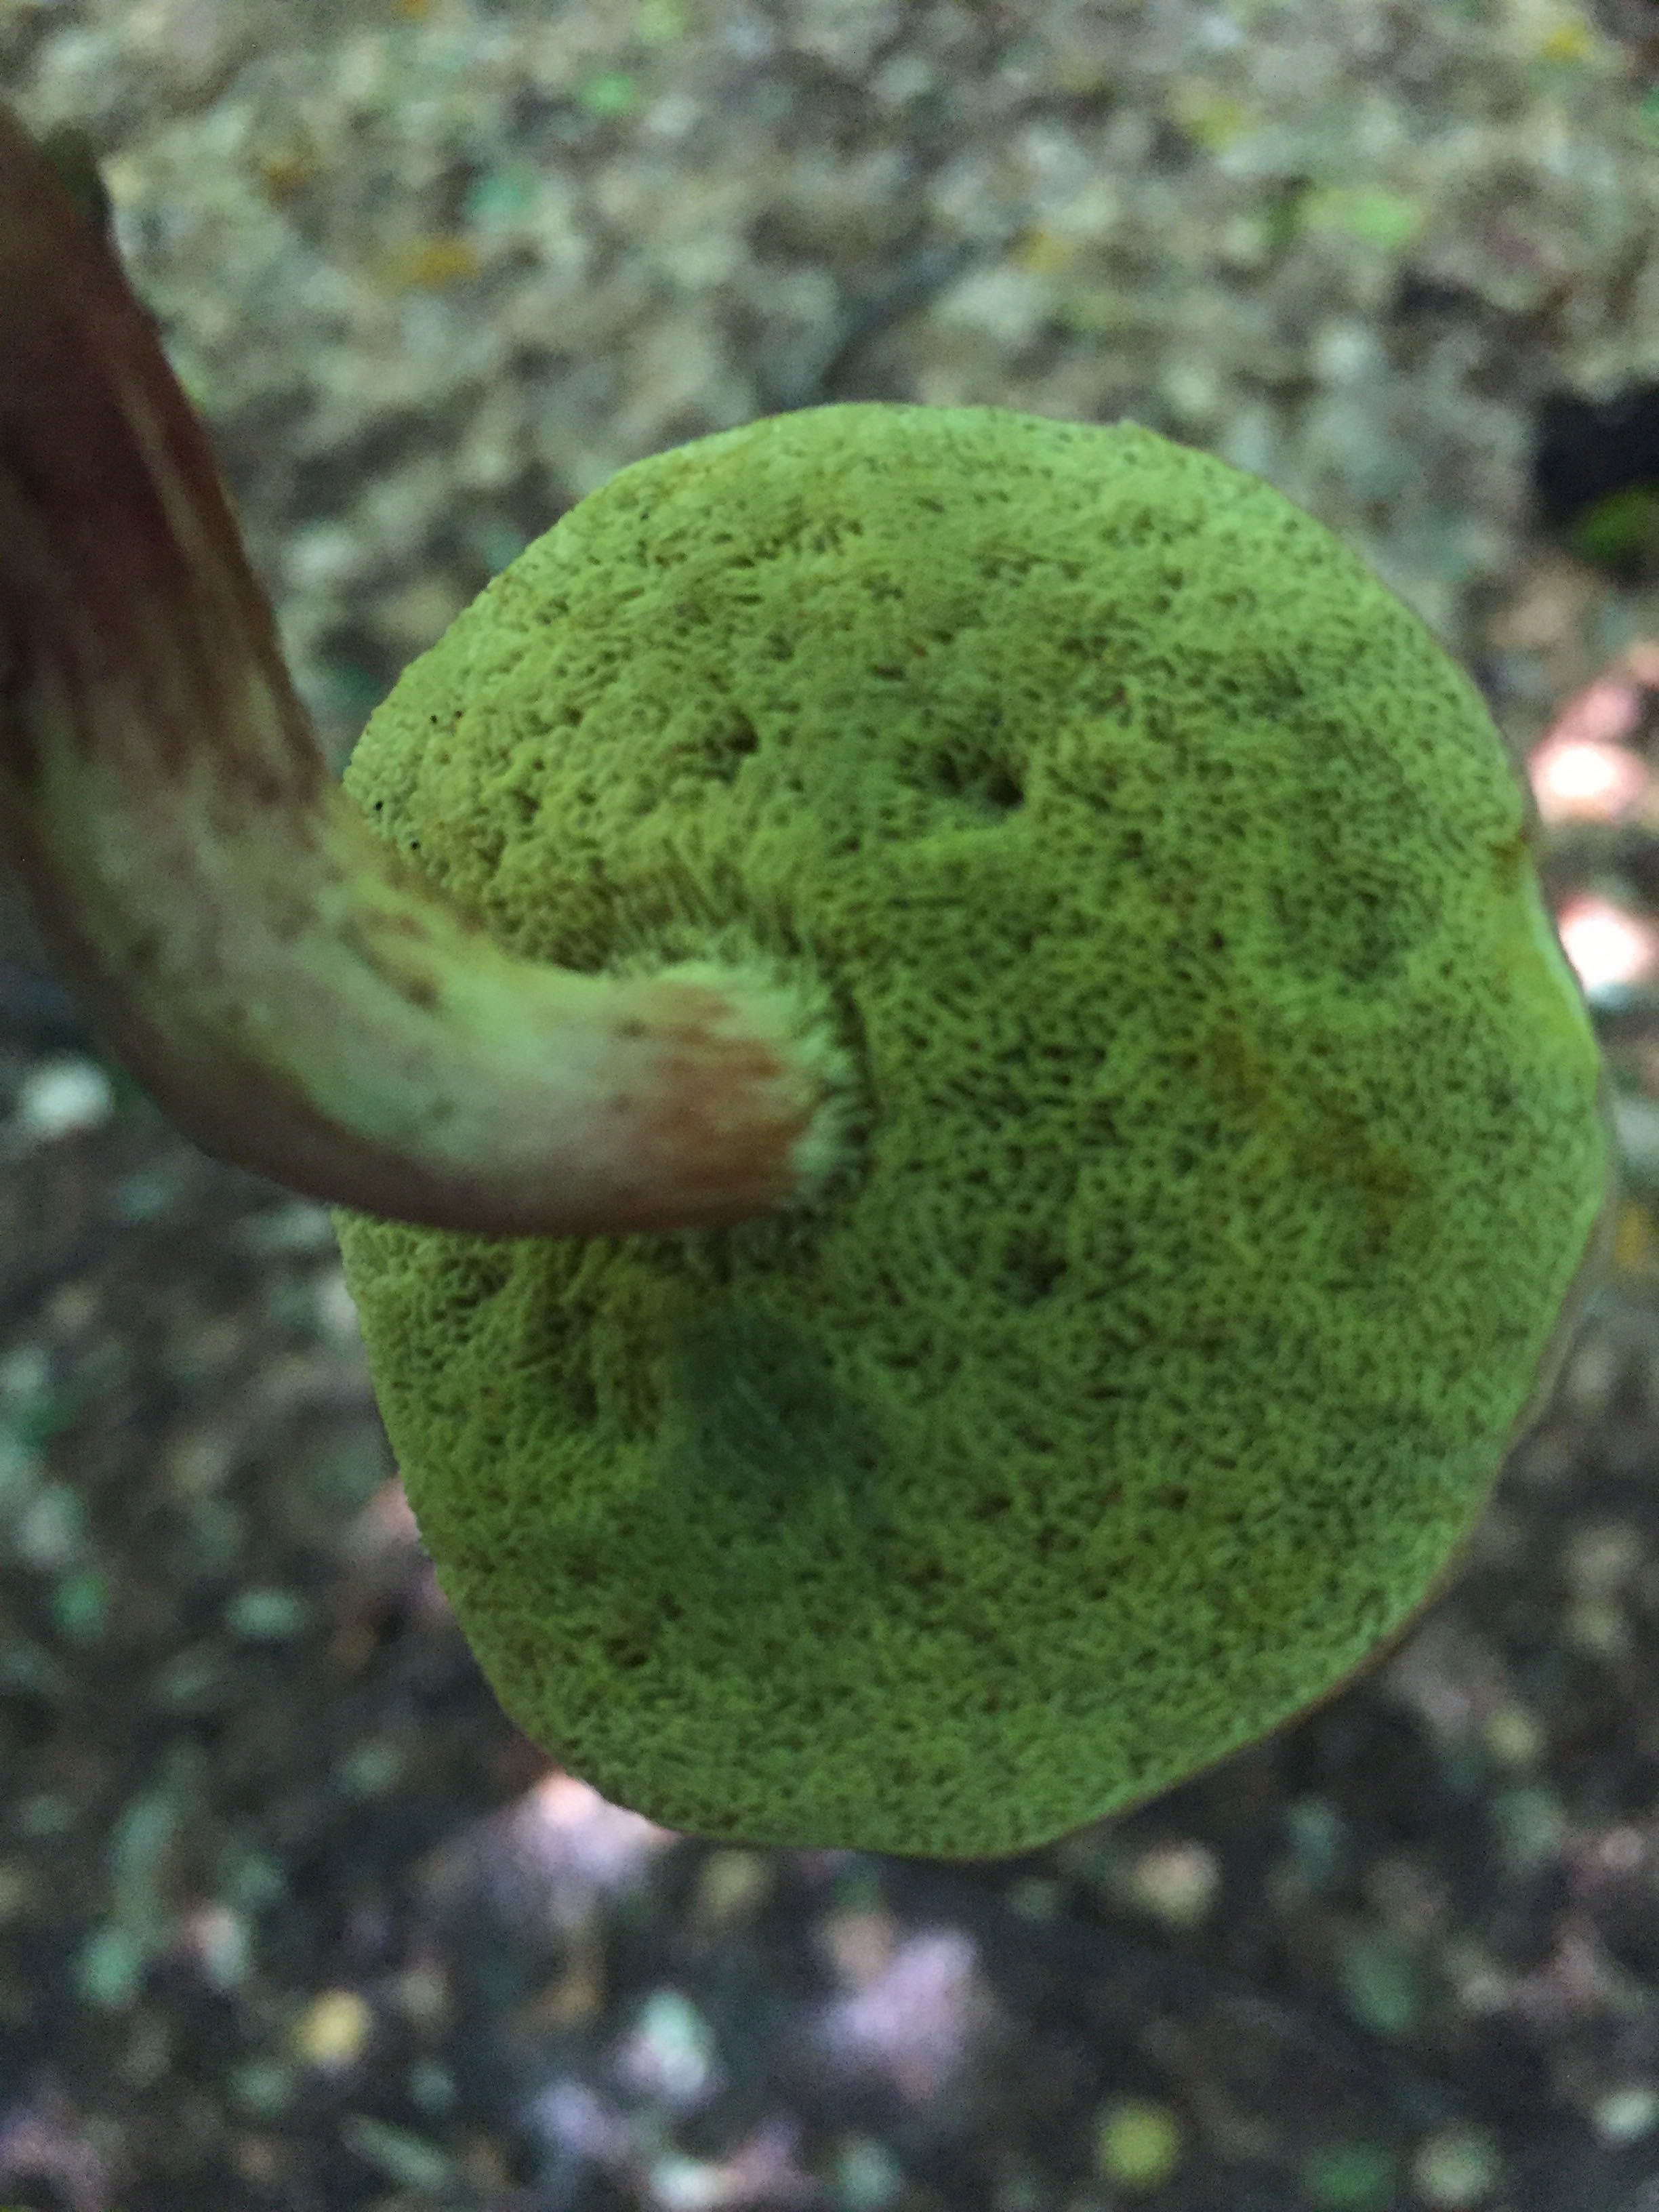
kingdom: Fungi
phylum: Basidiomycota
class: Agaricomycetes
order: Boletales
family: Boletaceae
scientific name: Boletaceae
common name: rørhatfamilien
